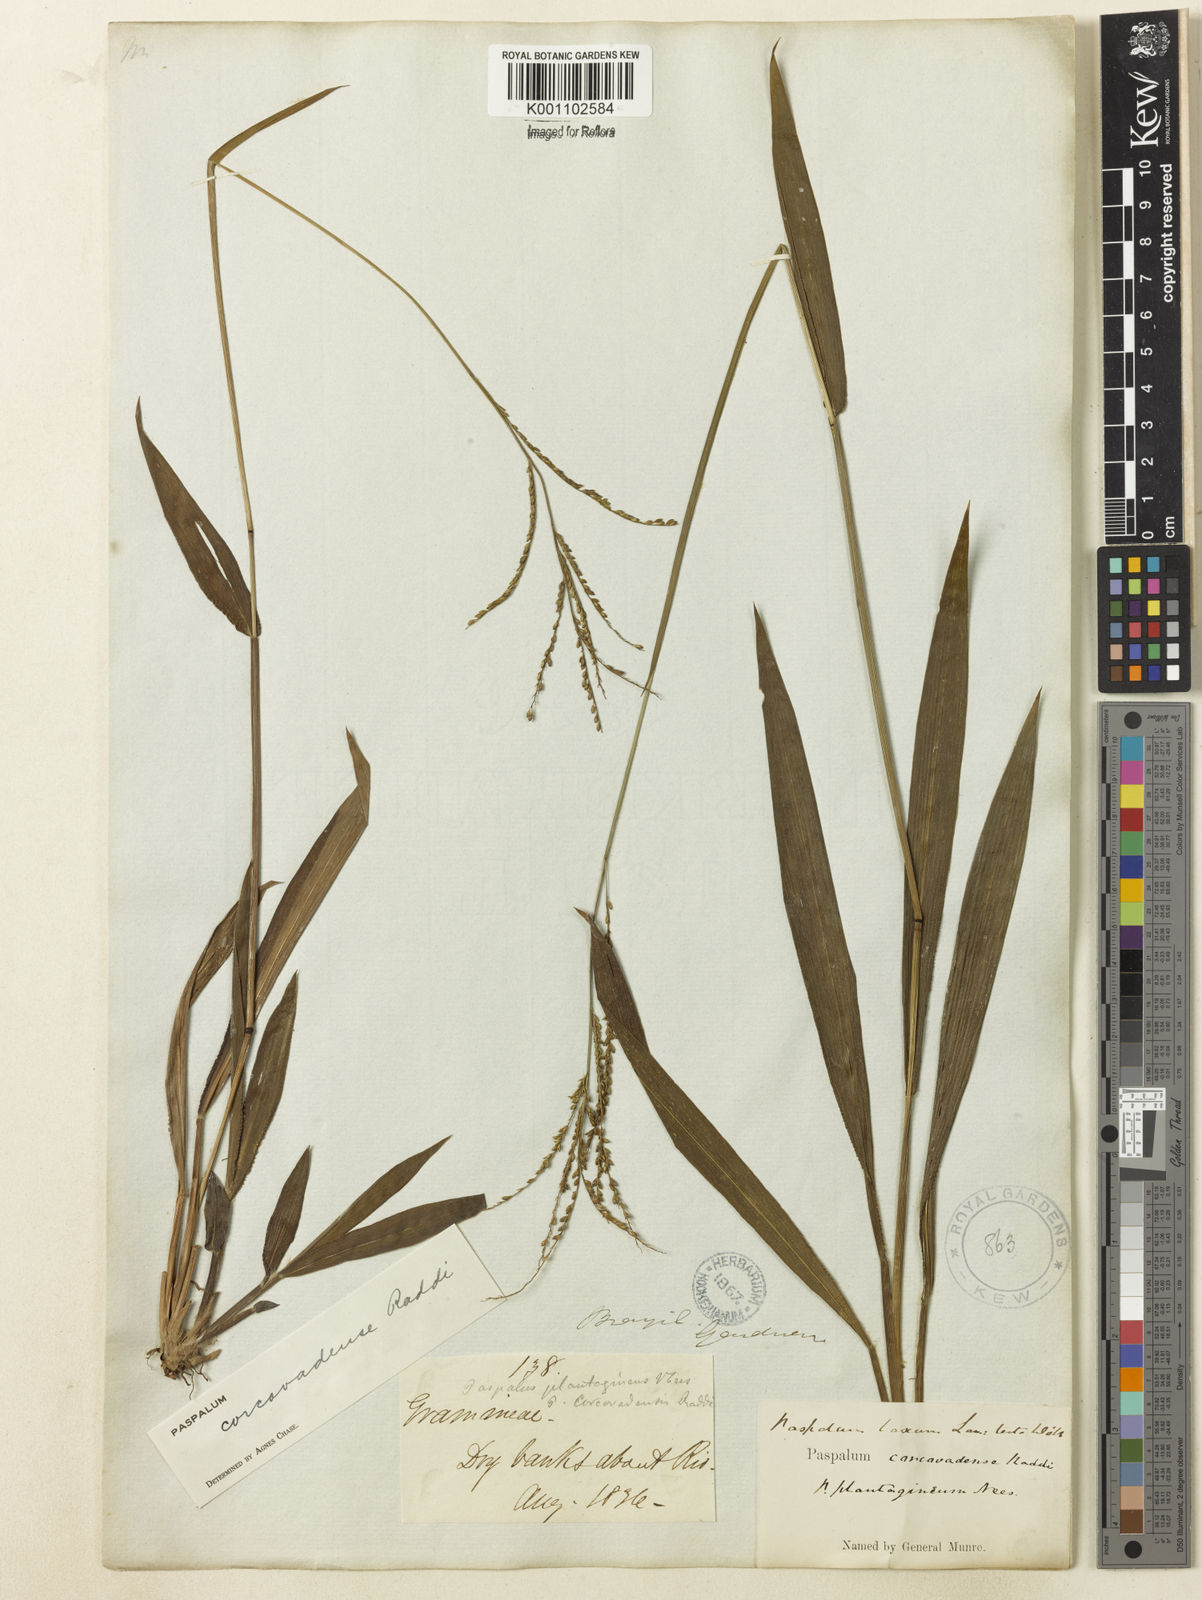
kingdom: Plantae
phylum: Tracheophyta
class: Liliopsida
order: Poales
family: Poaceae
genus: Paspalum
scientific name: Paspalum corcovadense
